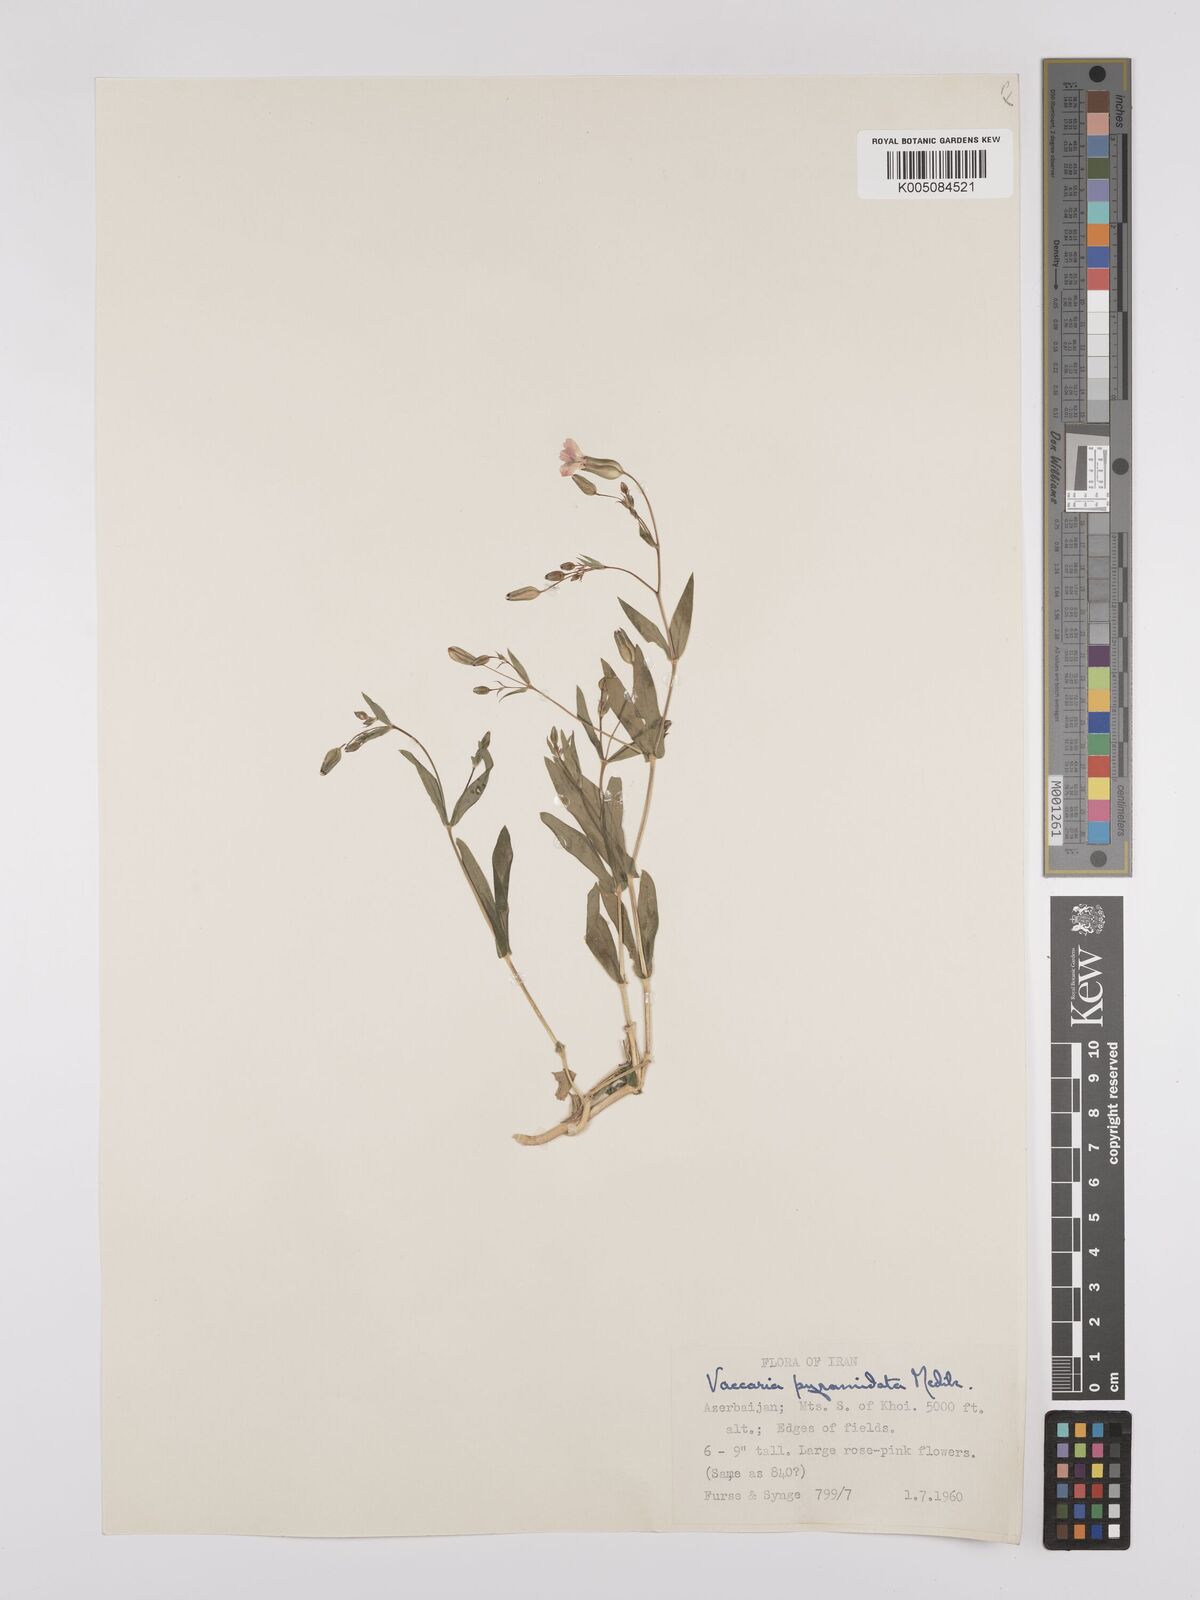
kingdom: Plantae
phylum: Tracheophyta
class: Magnoliopsida
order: Caryophyllales
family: Caryophyllaceae
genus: Gypsophila
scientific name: Gypsophila vaccaria
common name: Cow soapwort
